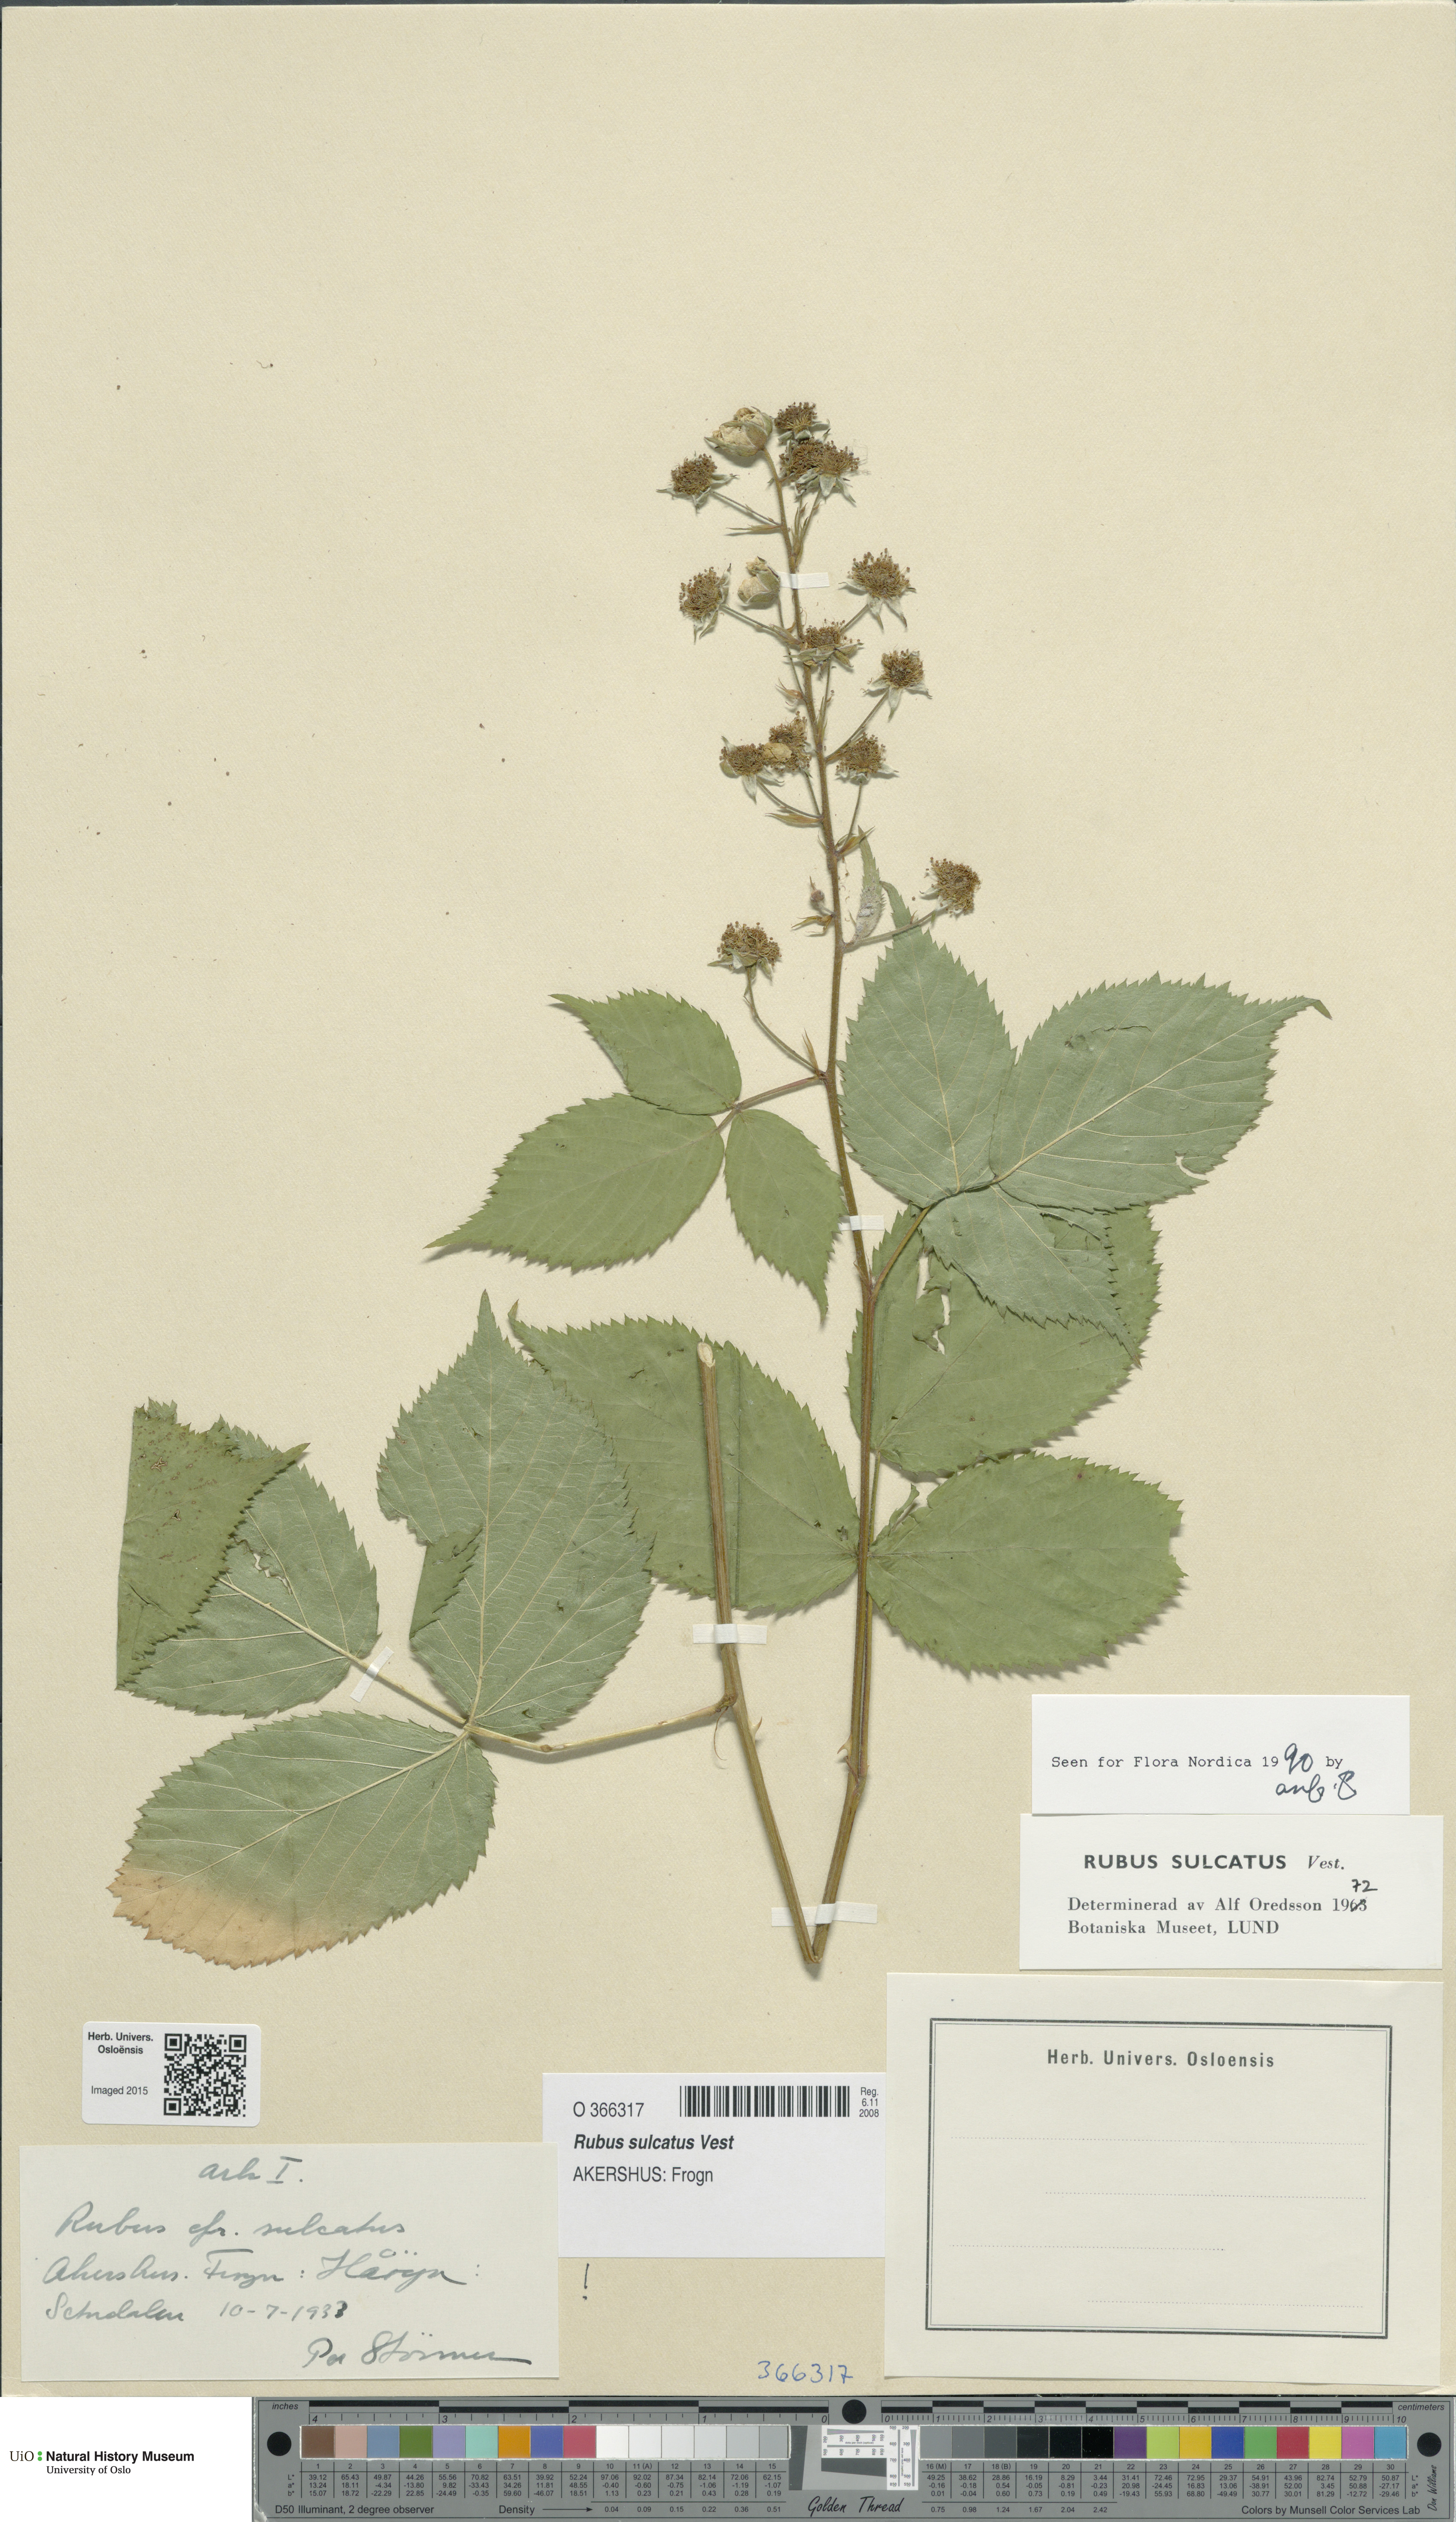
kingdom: Plantae
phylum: Tracheophyta
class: Magnoliopsida
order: Rosales
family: Rosaceae
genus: Rubus
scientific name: Rubus sulcatus
